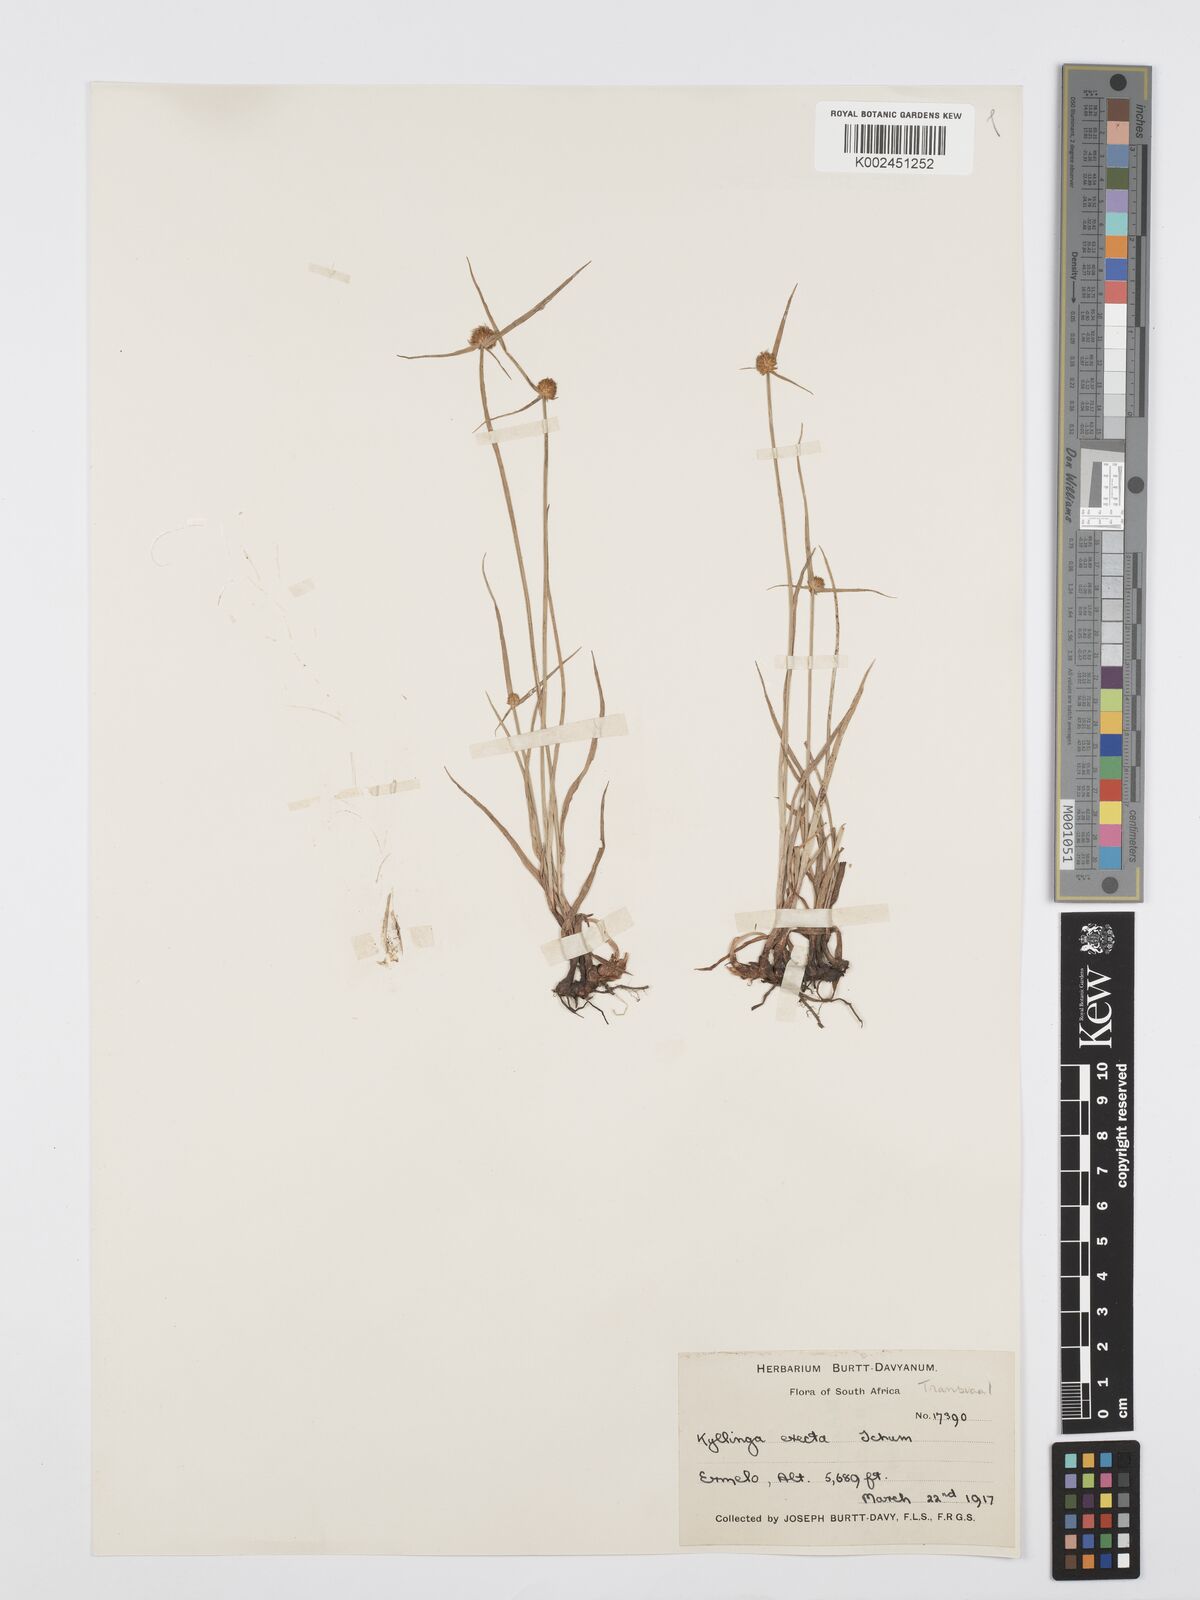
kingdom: Plantae
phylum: Tracheophyta
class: Liliopsida
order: Poales
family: Cyperaceae
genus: Cyperus
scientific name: Cyperus erectus
